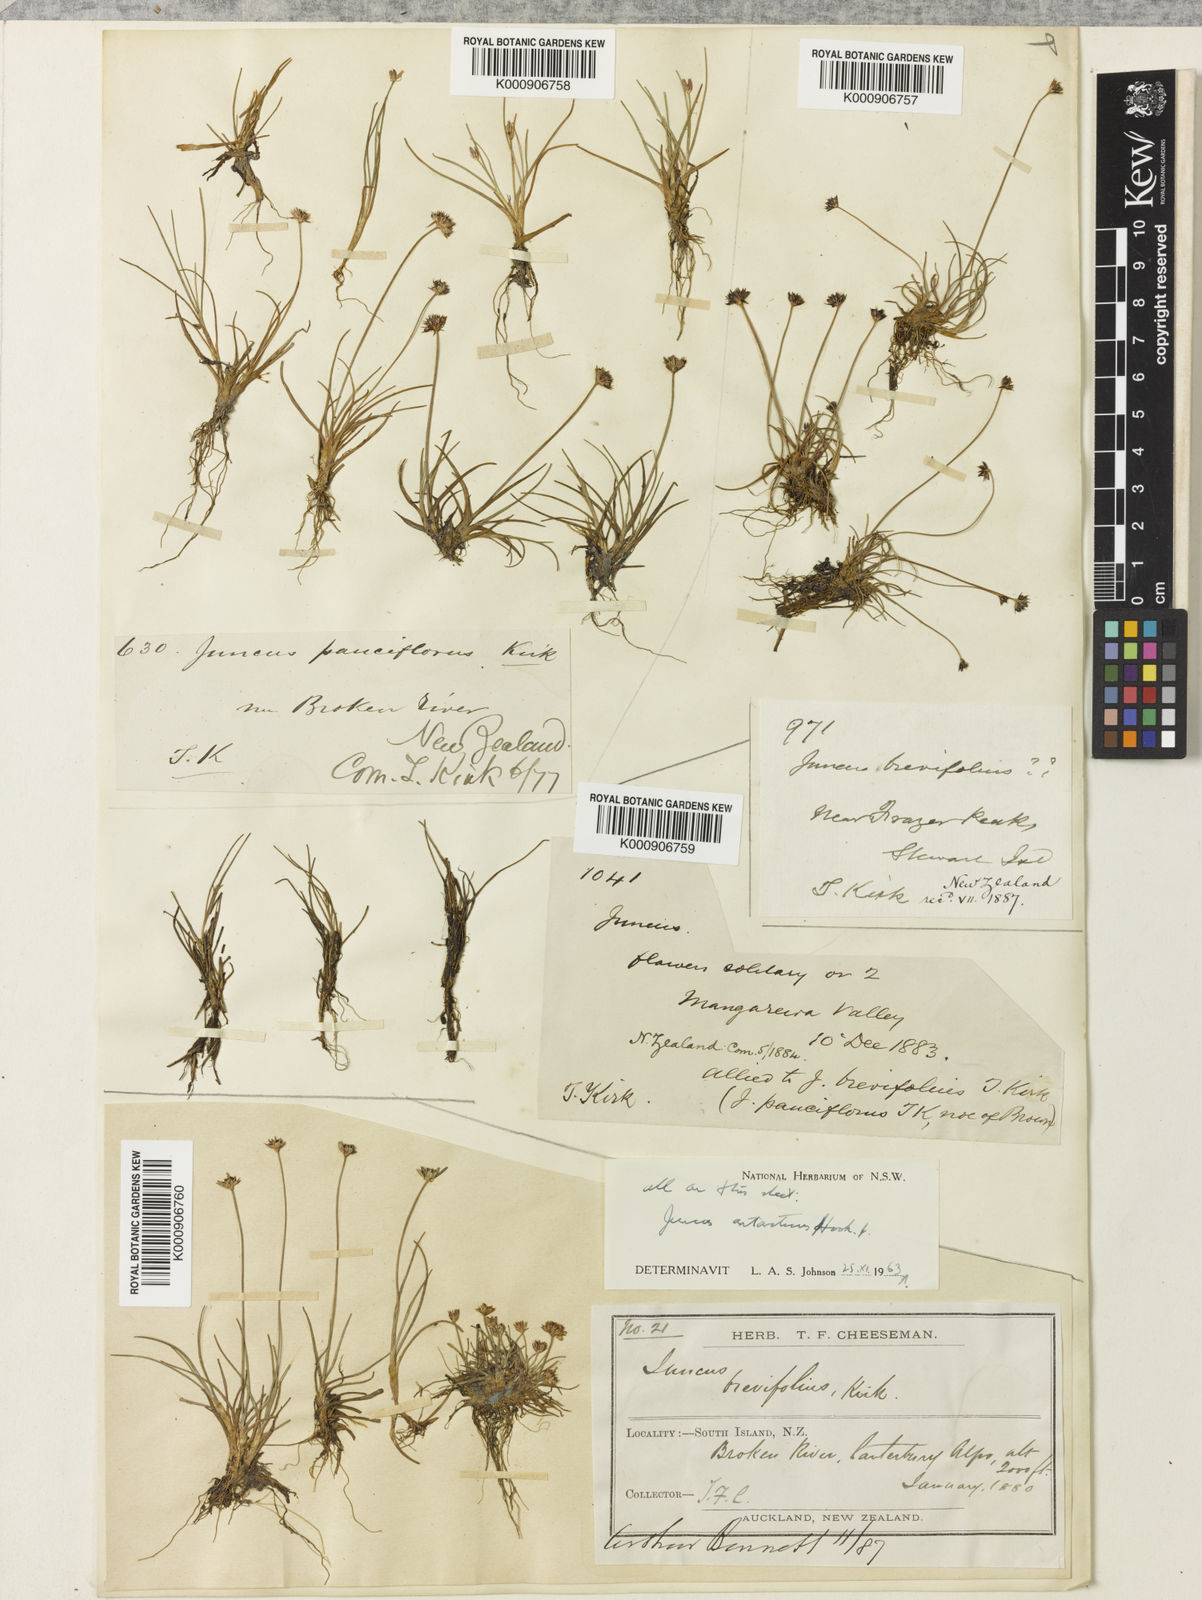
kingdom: Plantae
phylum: Tracheophyta
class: Liliopsida
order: Poales
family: Juncaceae
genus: Juncus
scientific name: Juncus antarcticus
